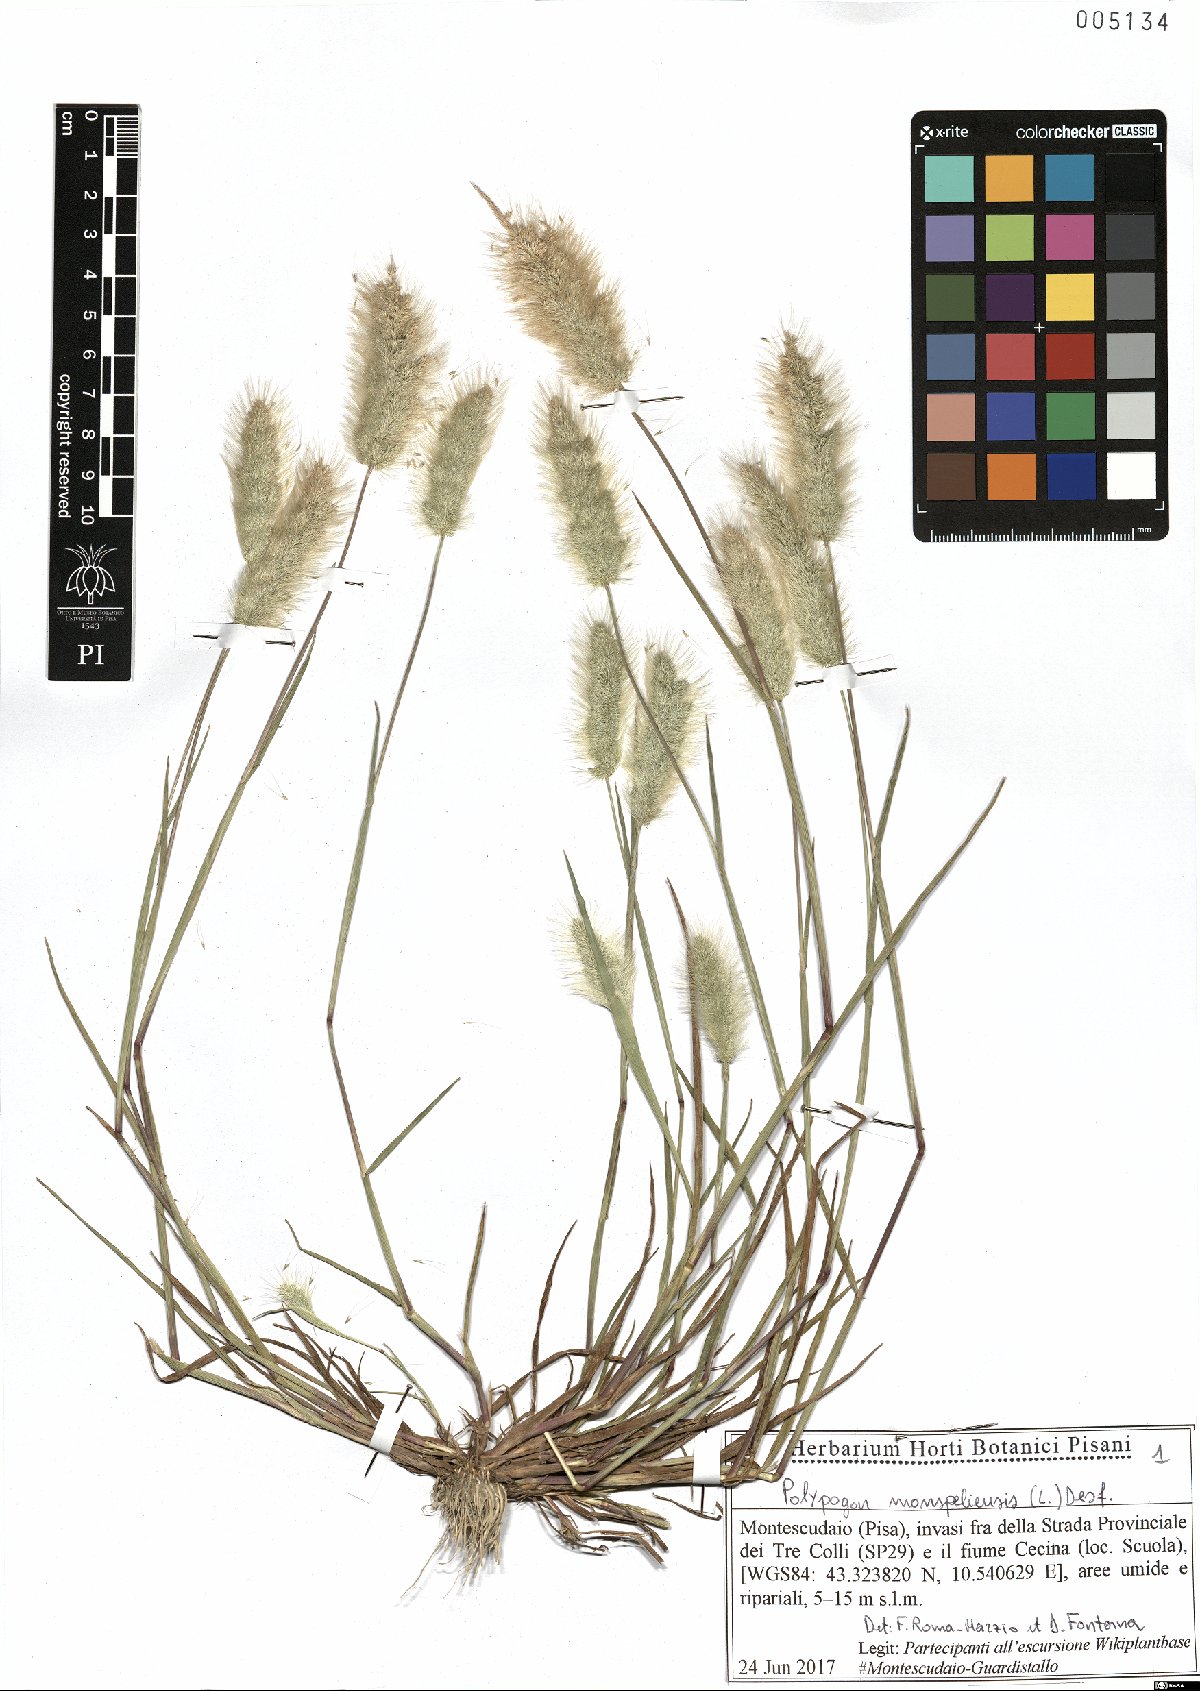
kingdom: Plantae
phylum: Tracheophyta
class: Liliopsida
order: Poales
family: Poaceae
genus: Polypogon
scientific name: Polypogon monspeliensis
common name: Annual rabbitsfoot grass
